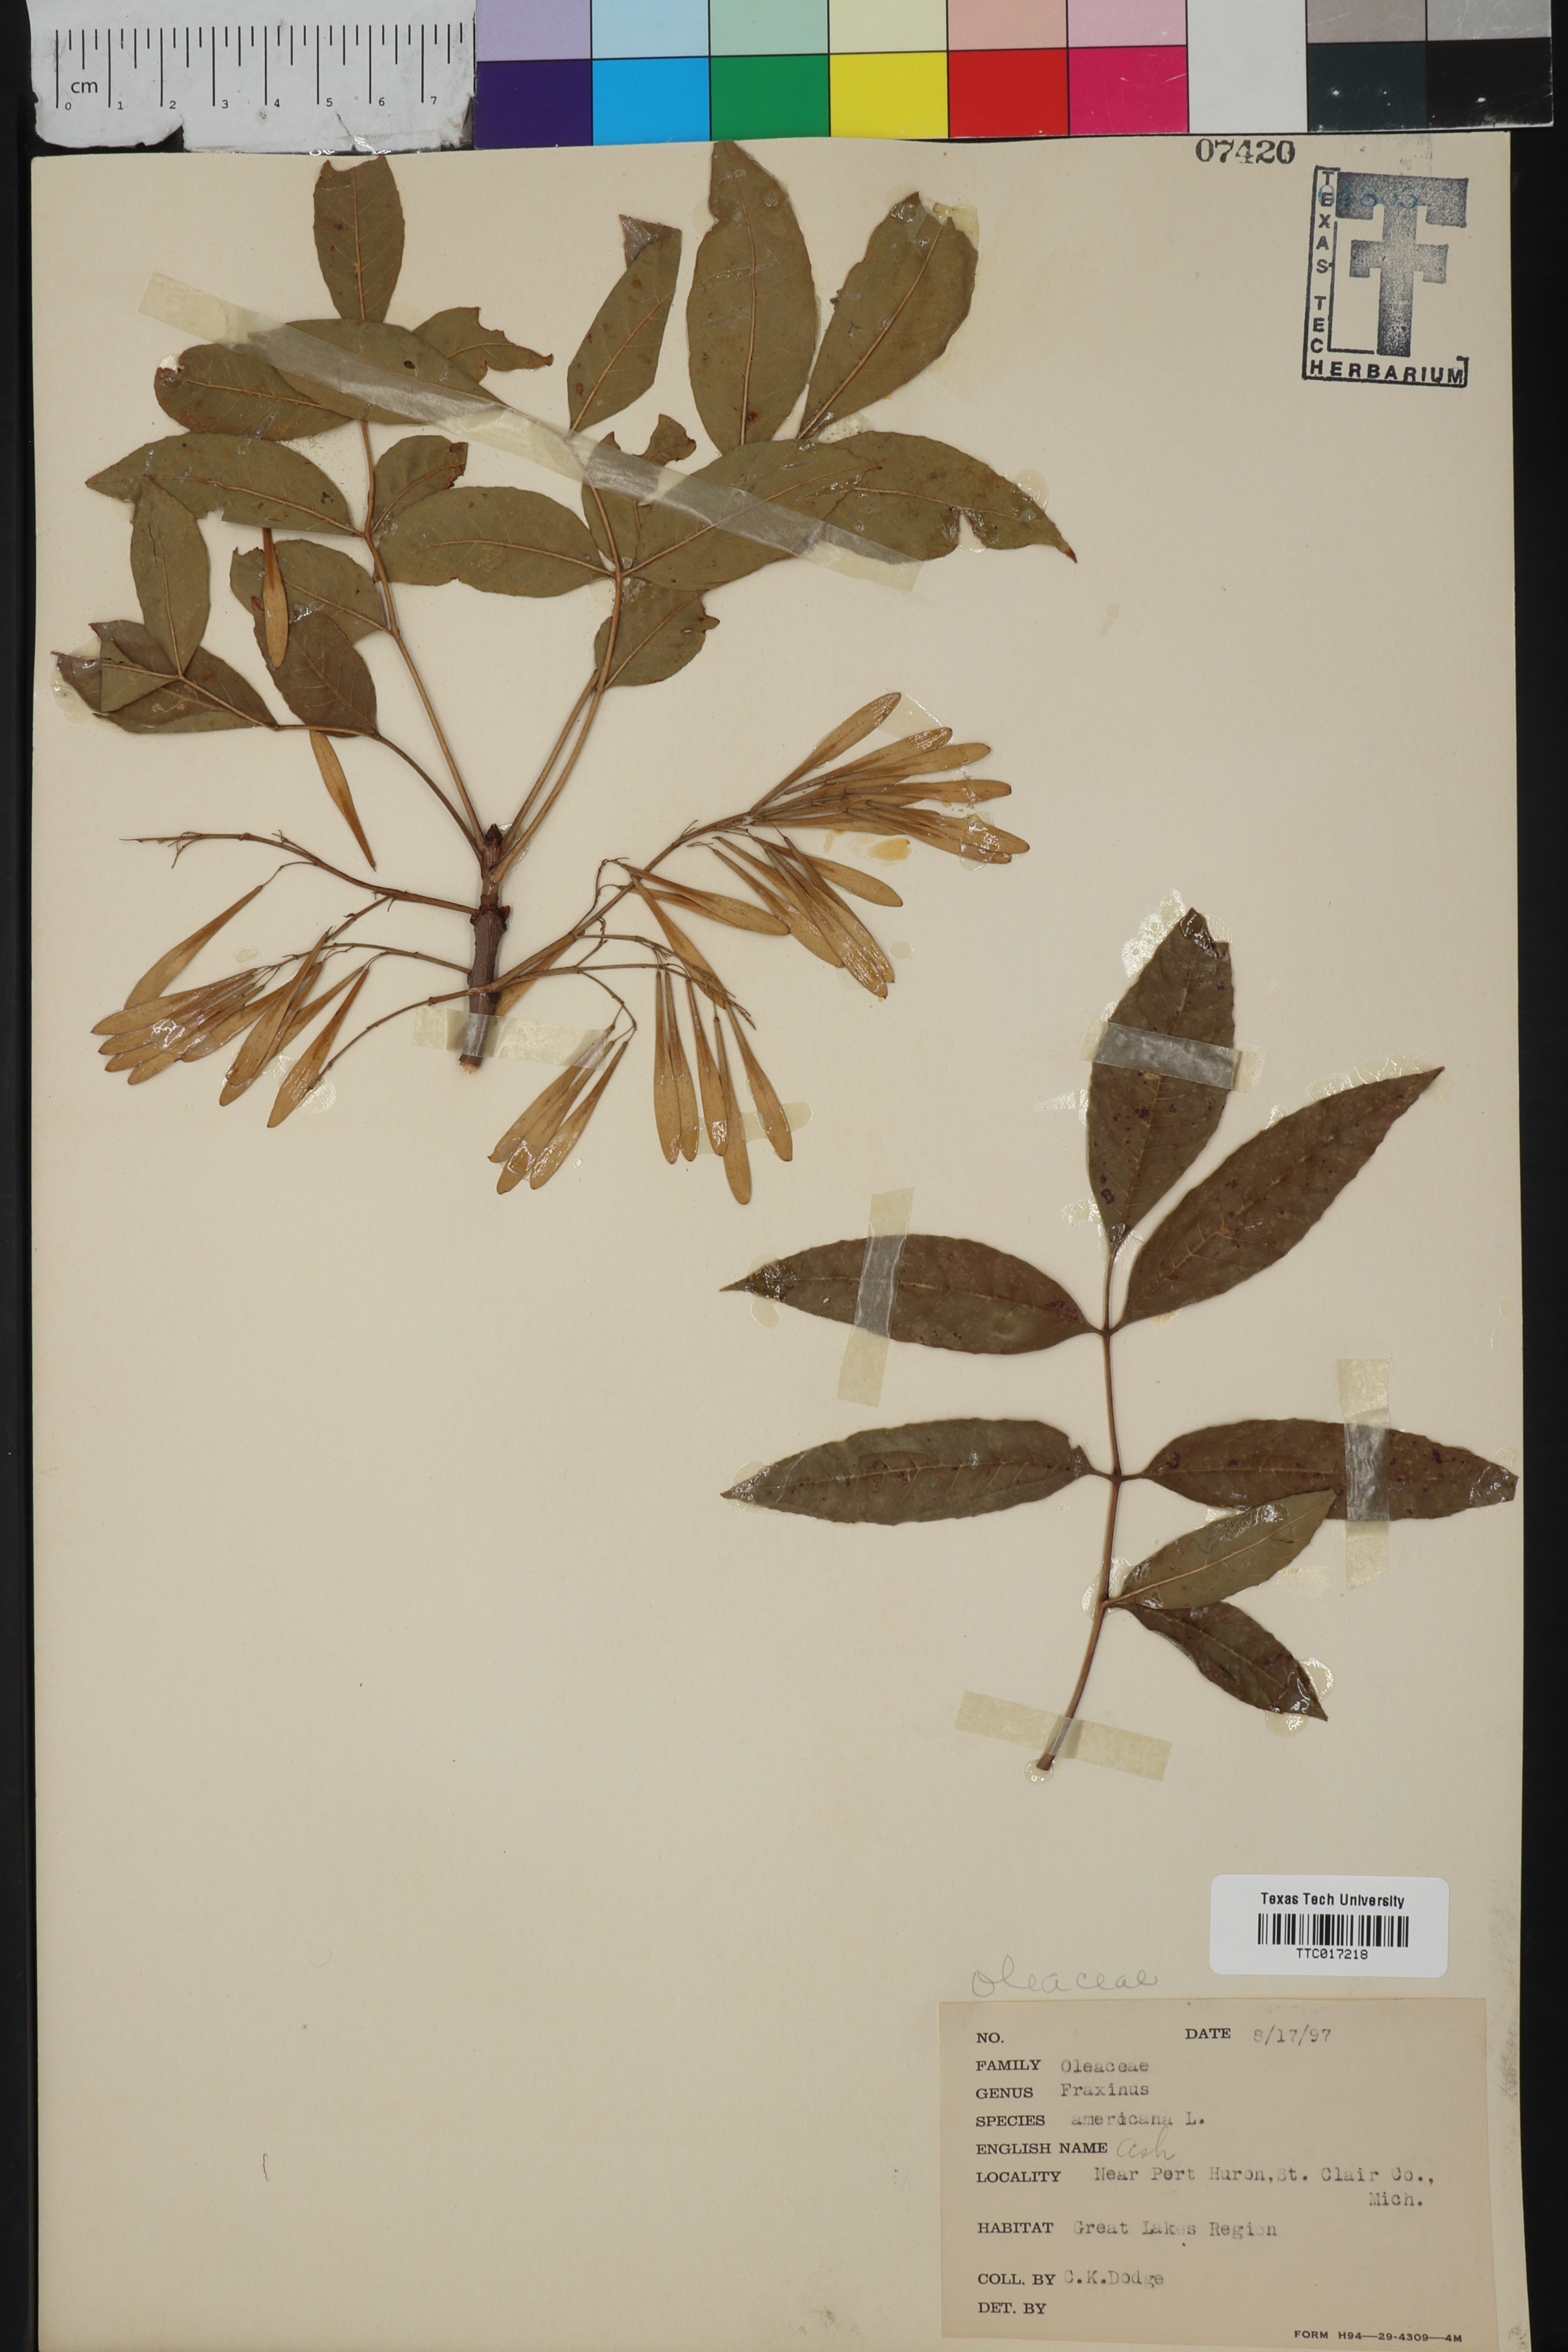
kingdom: Plantae
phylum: Tracheophyta
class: Magnoliopsida
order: Lamiales
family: Oleaceae
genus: Fraxinus
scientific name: Fraxinus americana
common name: White ash
